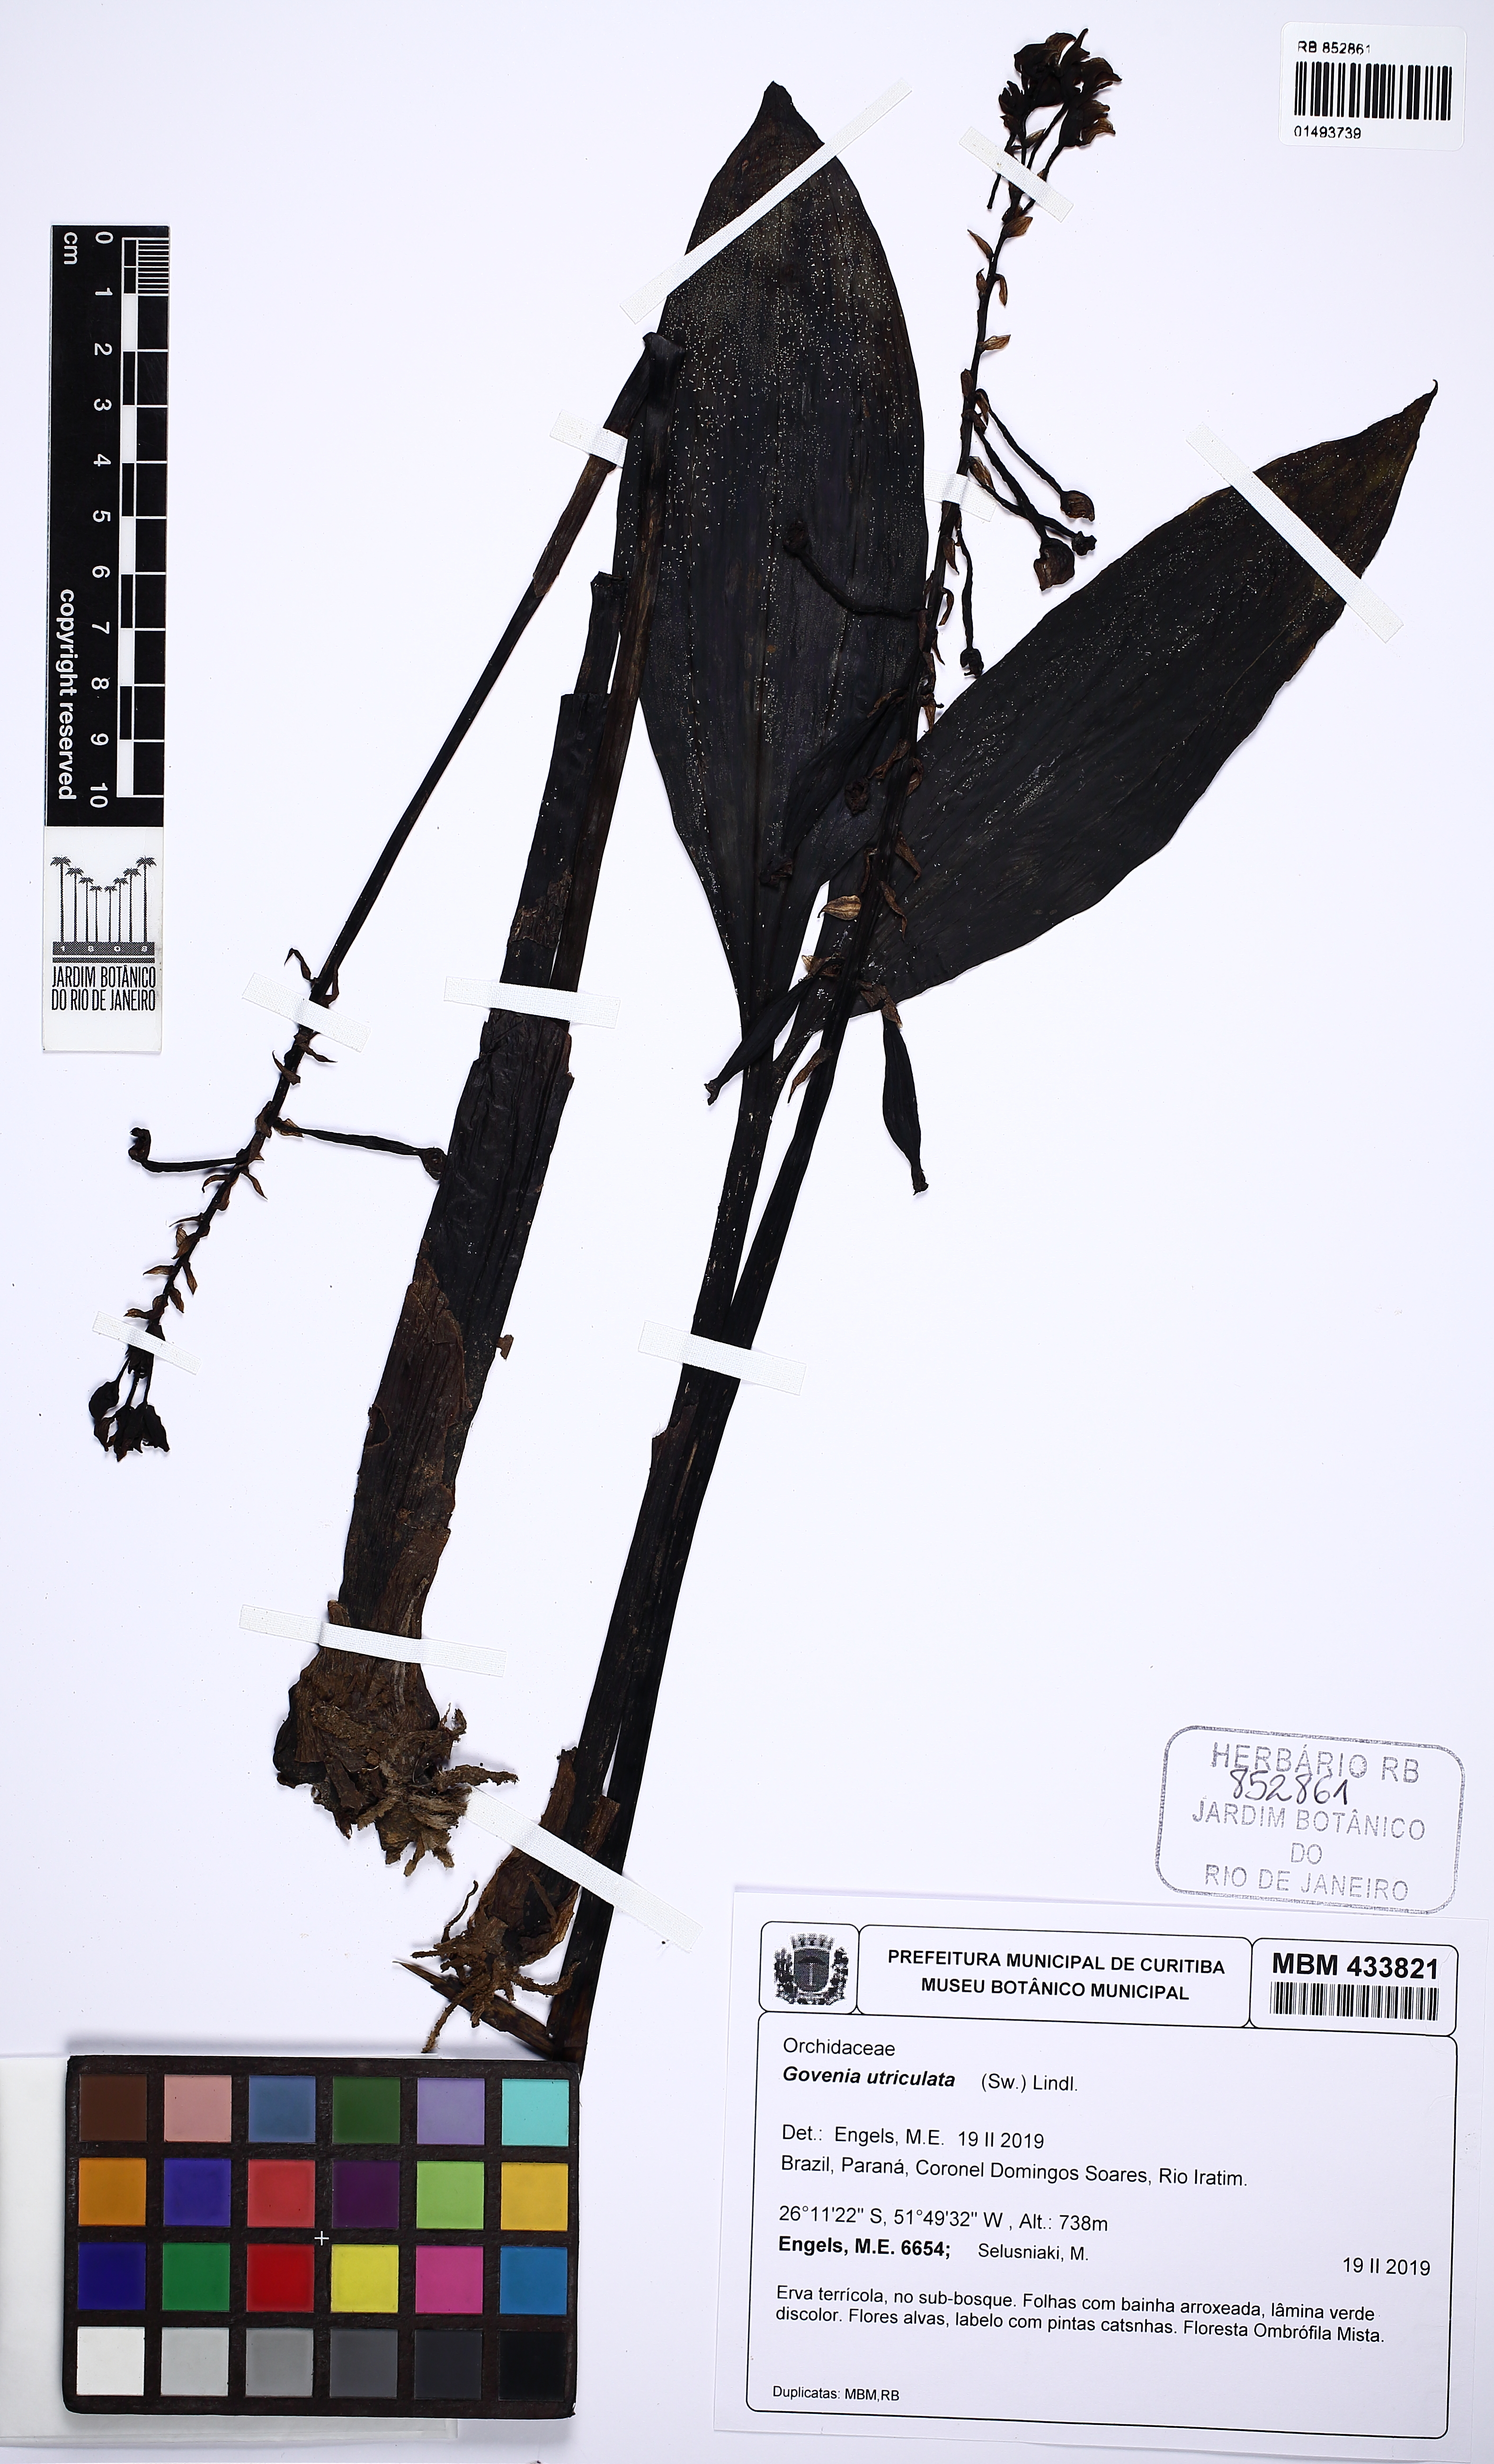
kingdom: Plantae
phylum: Tracheophyta
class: Liliopsida
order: Asparagales
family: Orchidaceae
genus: Govenia
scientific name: Govenia utriculata
